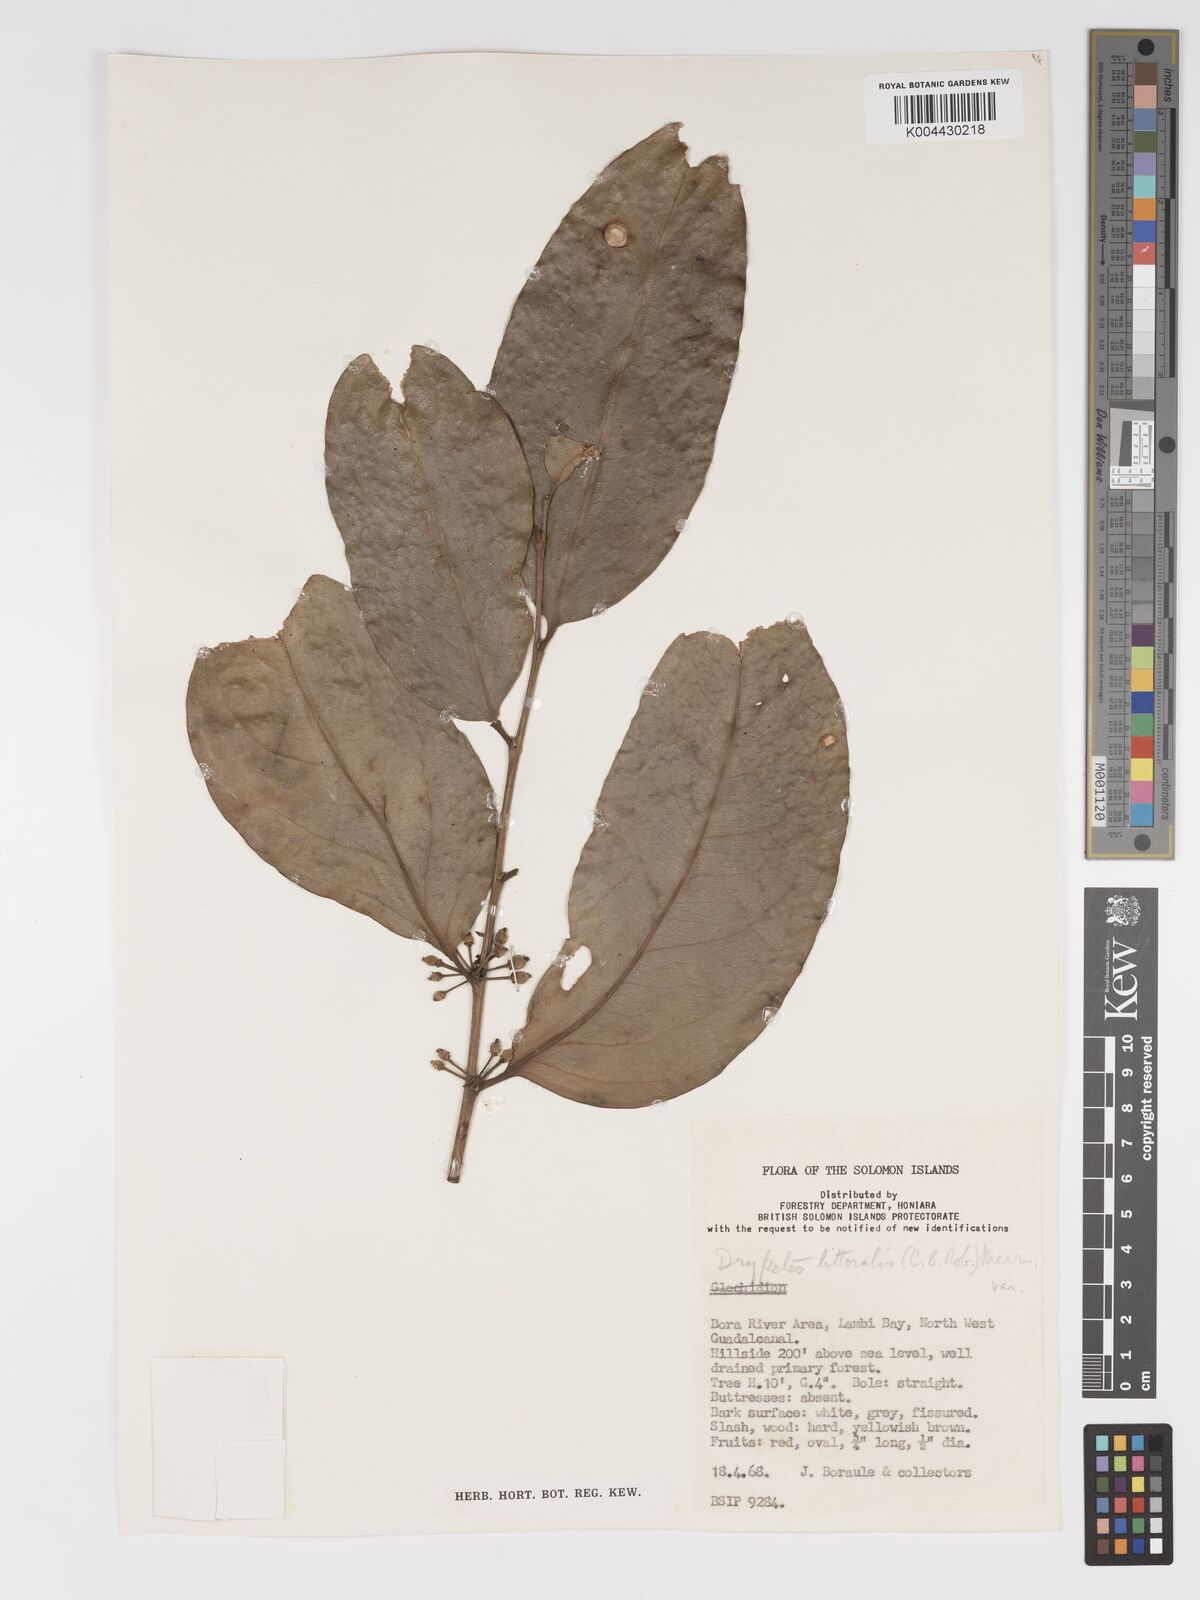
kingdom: Plantae
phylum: Tracheophyta
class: Magnoliopsida
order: Malpighiales
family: Putranjivaceae
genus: Drypetes
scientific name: Drypetes littoralis
